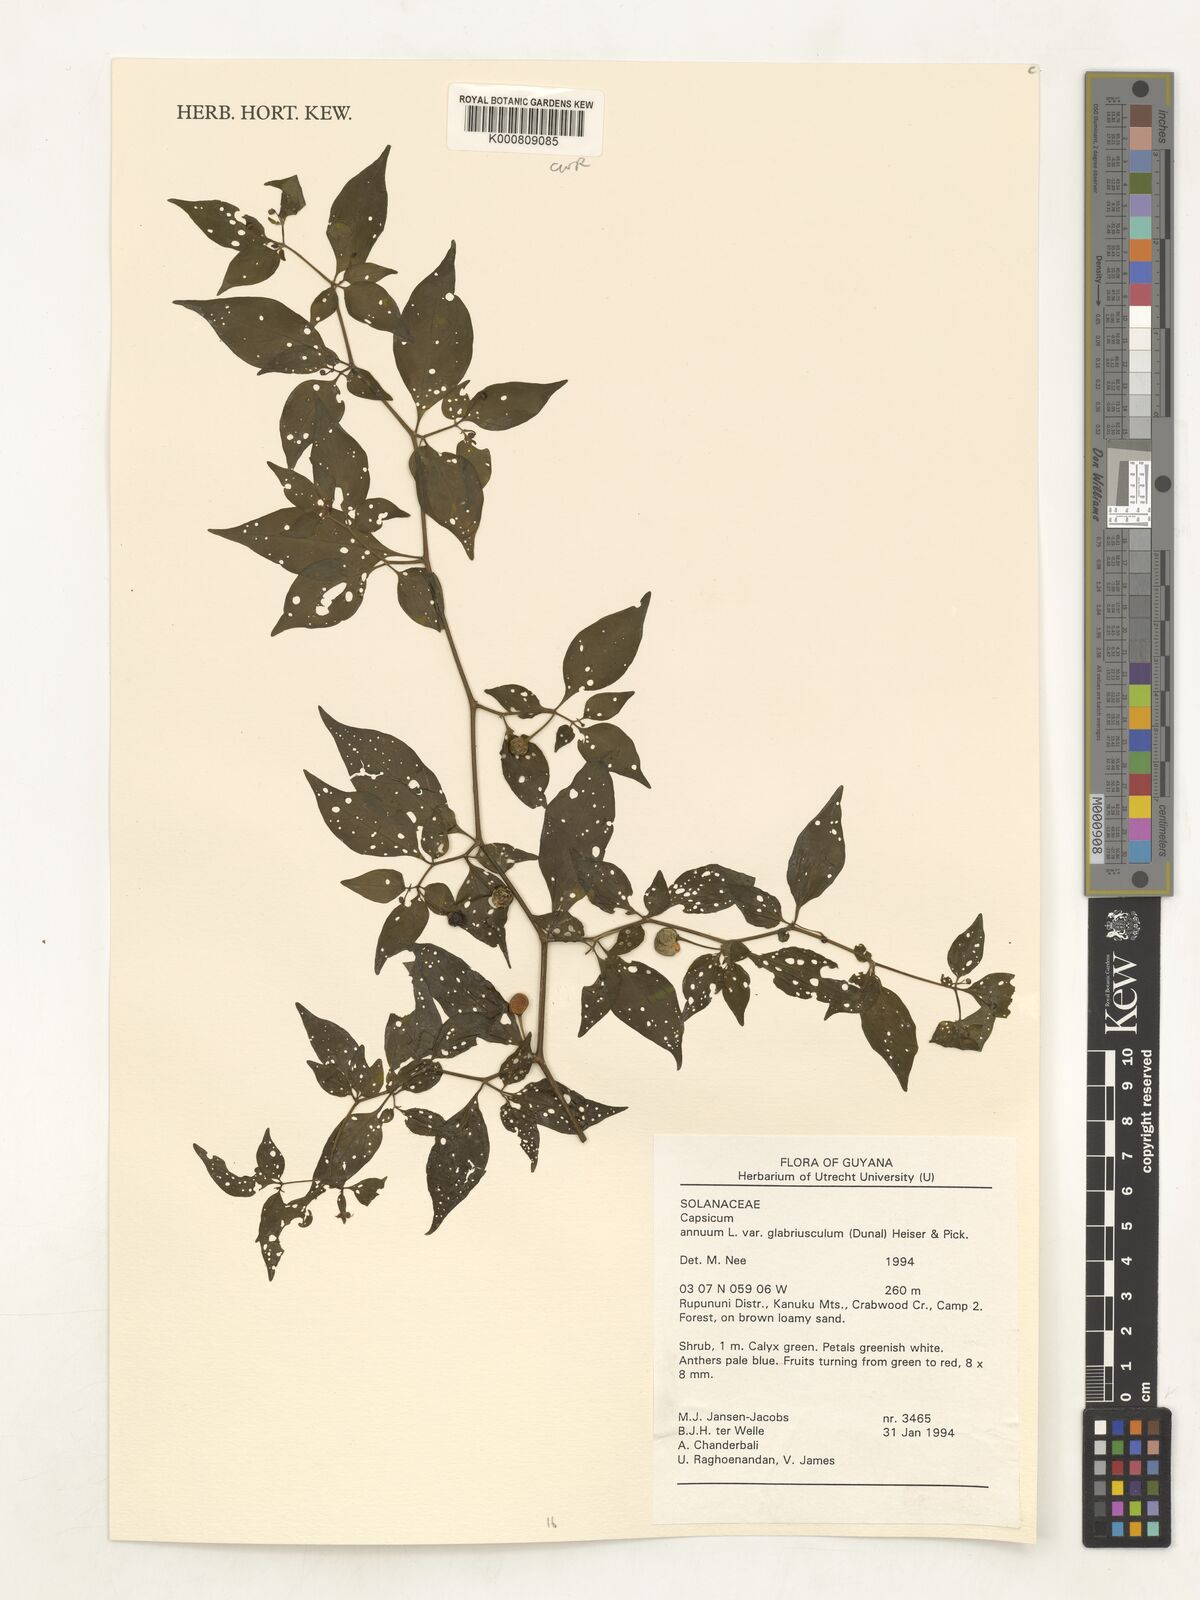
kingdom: Plantae
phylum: Tracheophyta
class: Magnoliopsida
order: Solanales
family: Solanaceae
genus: Capsicum
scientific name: Capsicum annuum
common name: Sweet pepper
